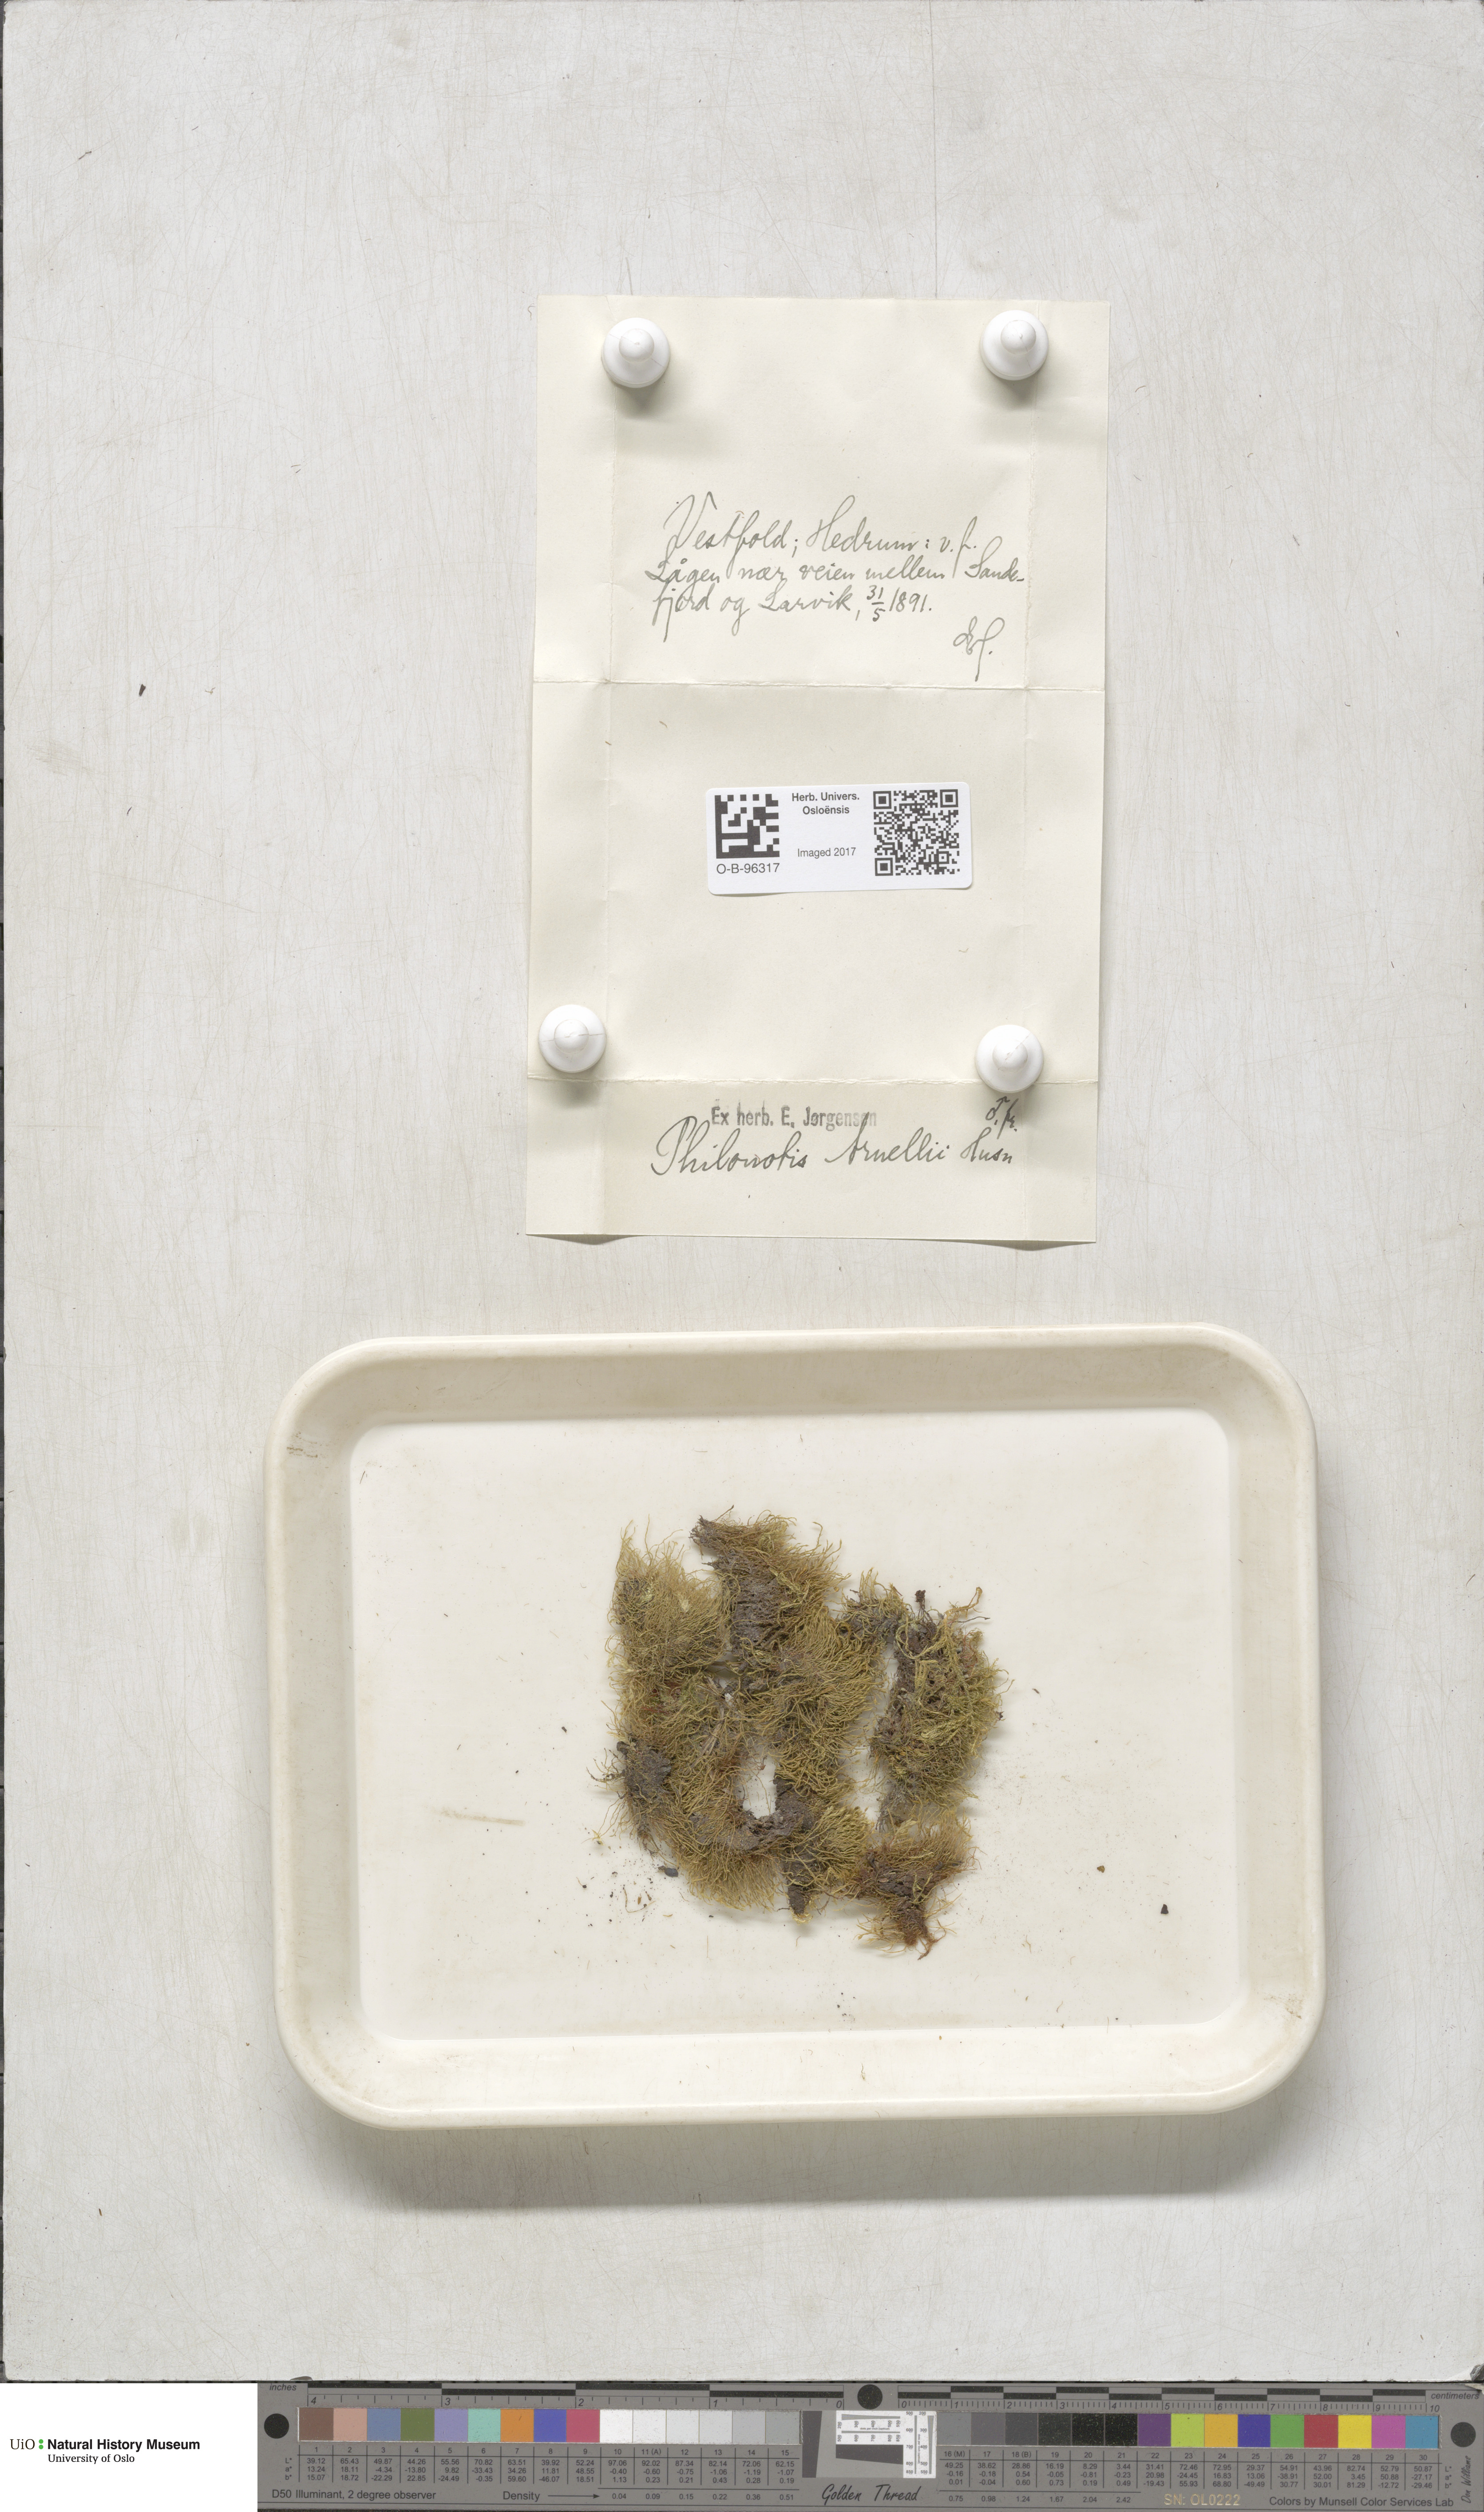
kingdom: Plantae
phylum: Bryophyta
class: Bryopsida
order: Bartramiales
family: Bartramiaceae
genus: Philonotis
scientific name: Philonotis capillaris
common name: Arnell's apple-moss
